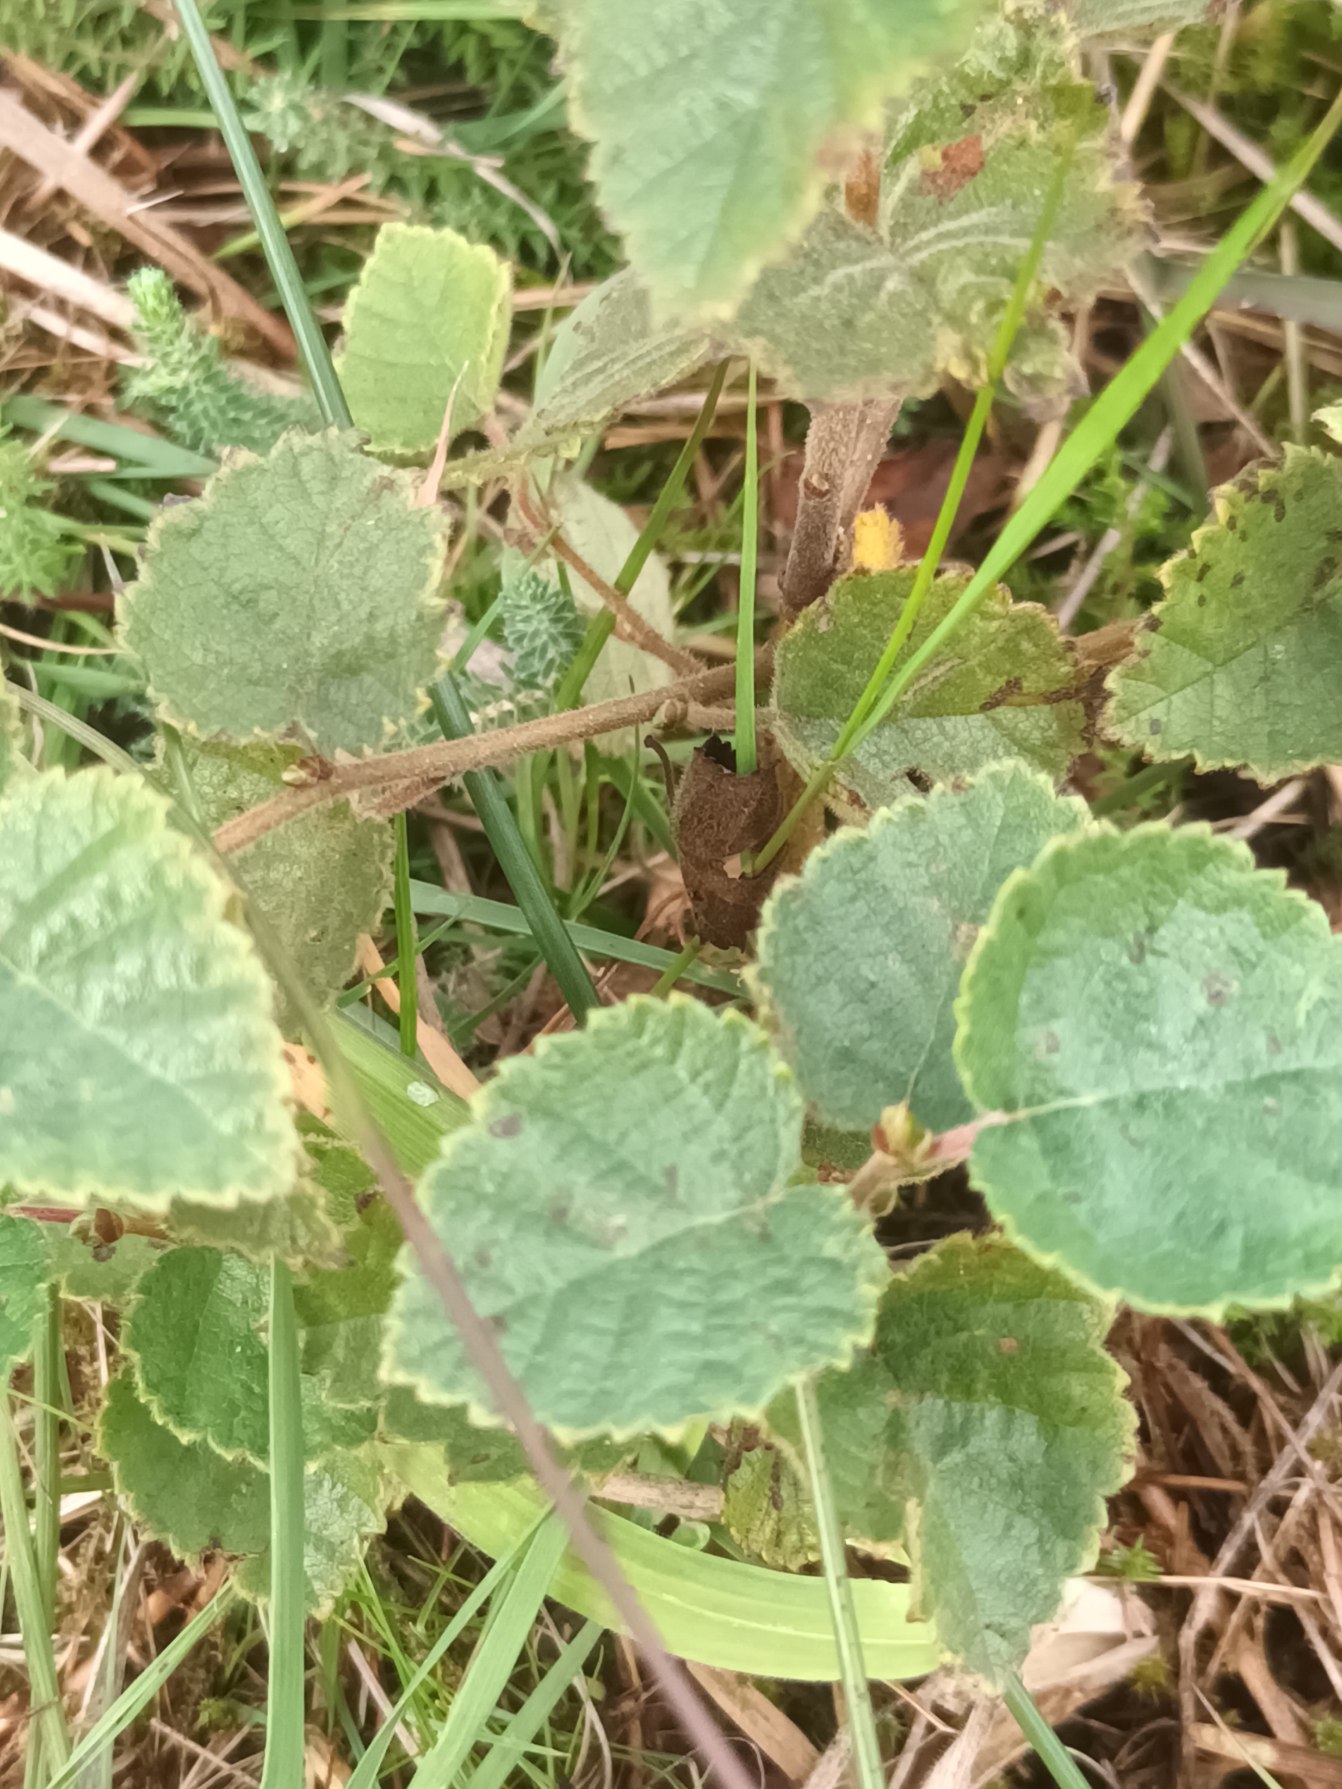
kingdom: Plantae
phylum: Tracheophyta
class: Magnoliopsida
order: Fagales
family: Betulaceae
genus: Betula
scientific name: Betula pubescens
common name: Dun-birk
